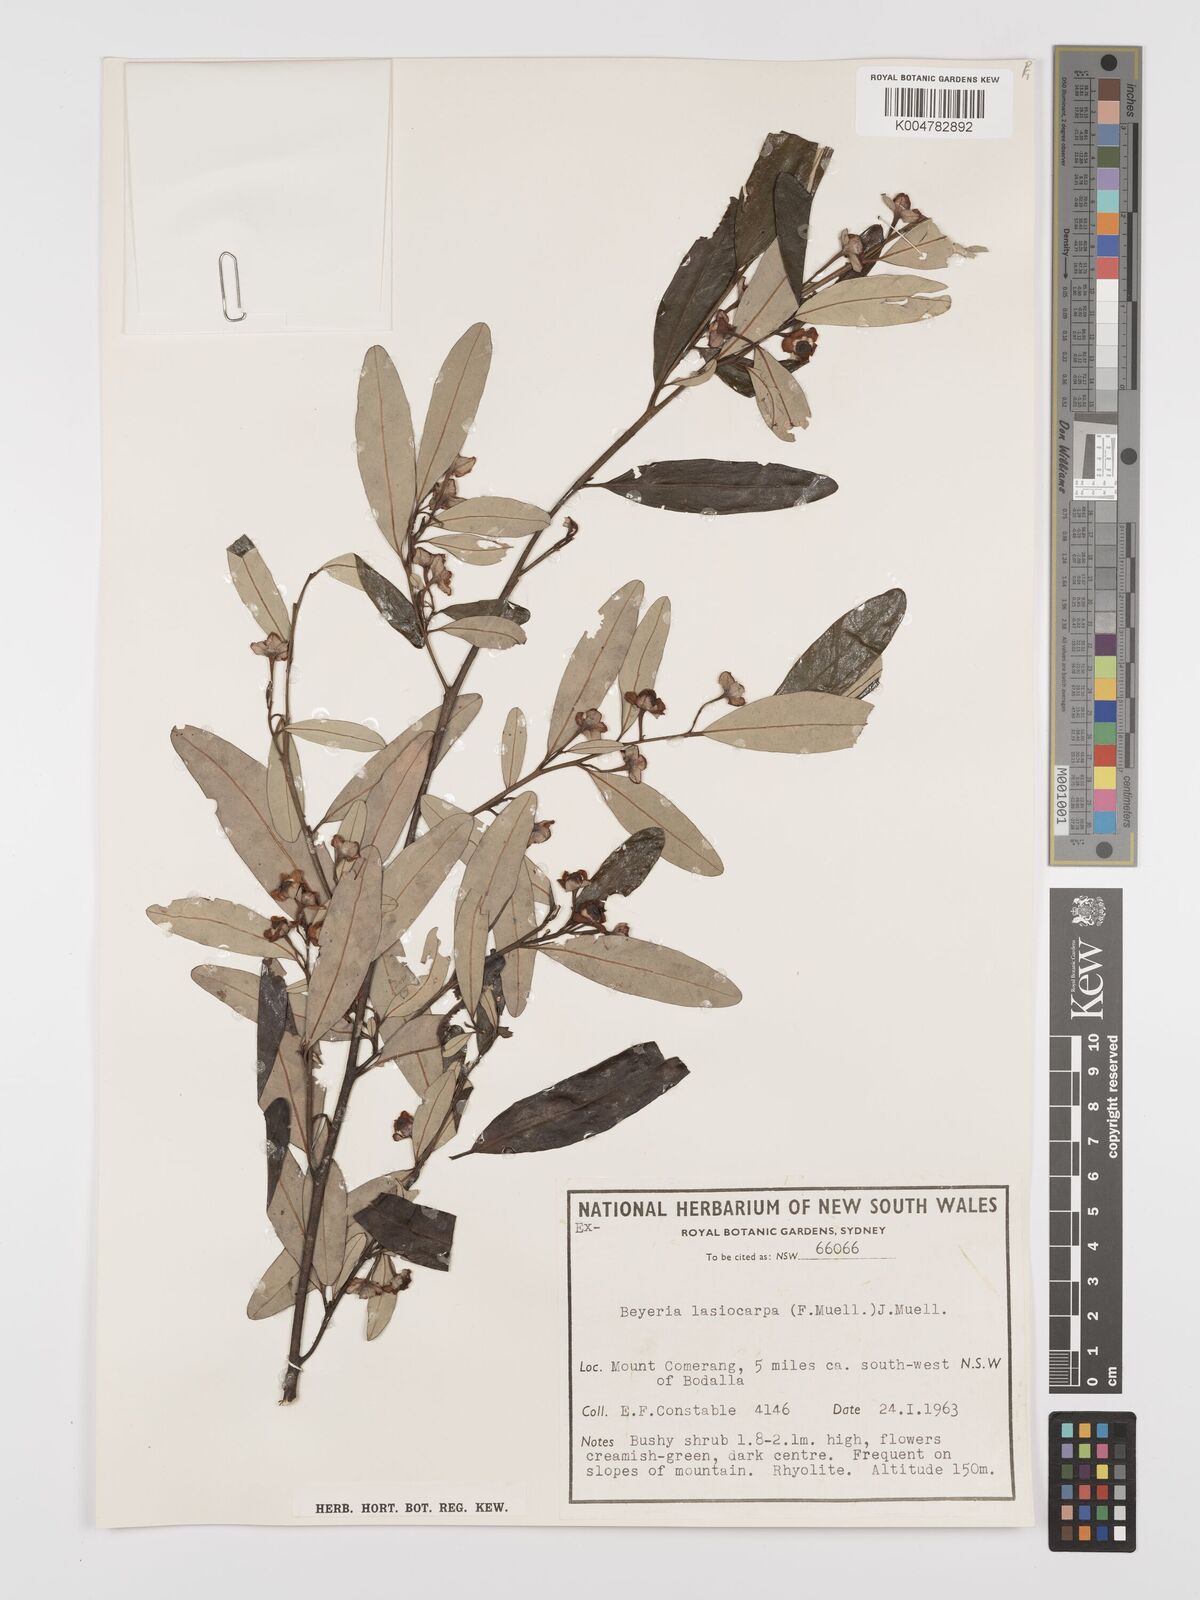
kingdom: Plantae
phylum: Tracheophyta
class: Magnoliopsida
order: Malpighiales
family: Euphorbiaceae
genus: Beyeria
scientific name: Beyeria lasiocarpa
